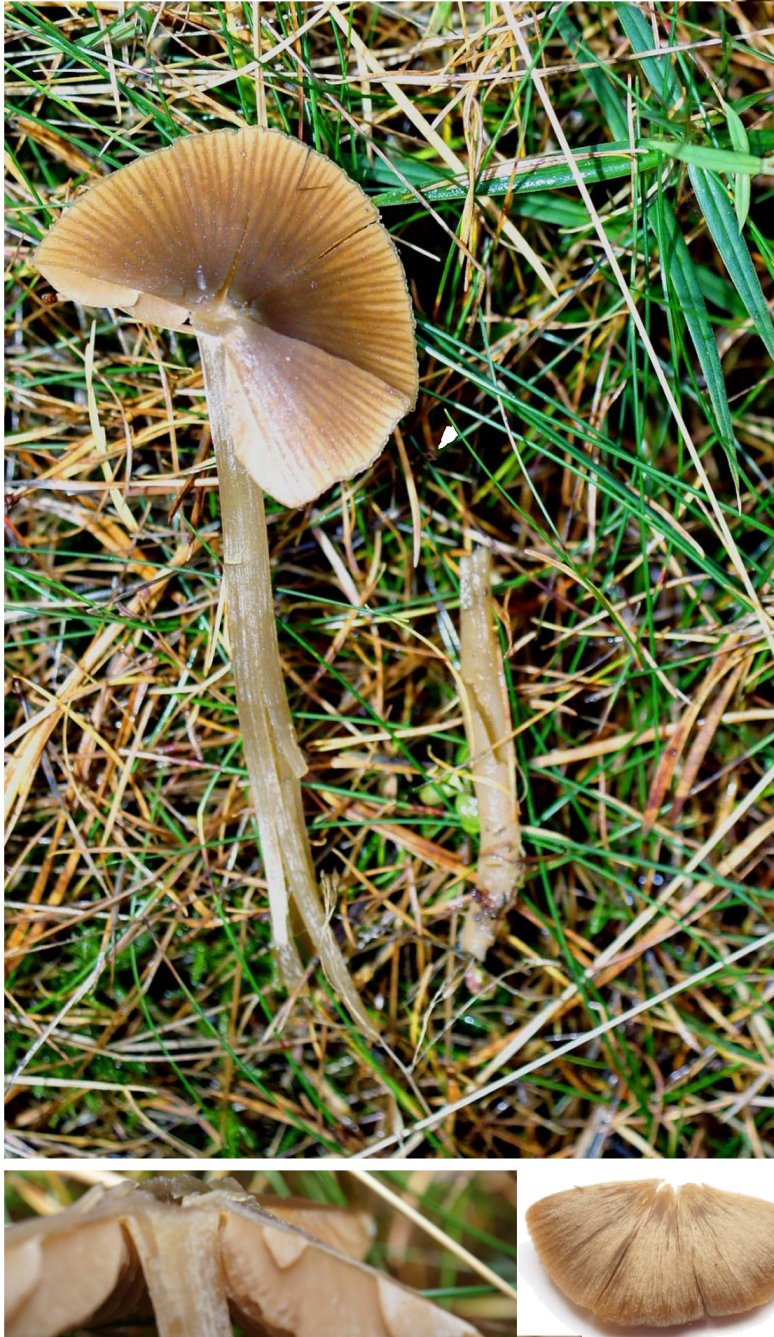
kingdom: Fungi
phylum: Basidiomycota
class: Agaricomycetes
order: Agaricales
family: Entolomataceae
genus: Entoloma
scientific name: Entoloma
